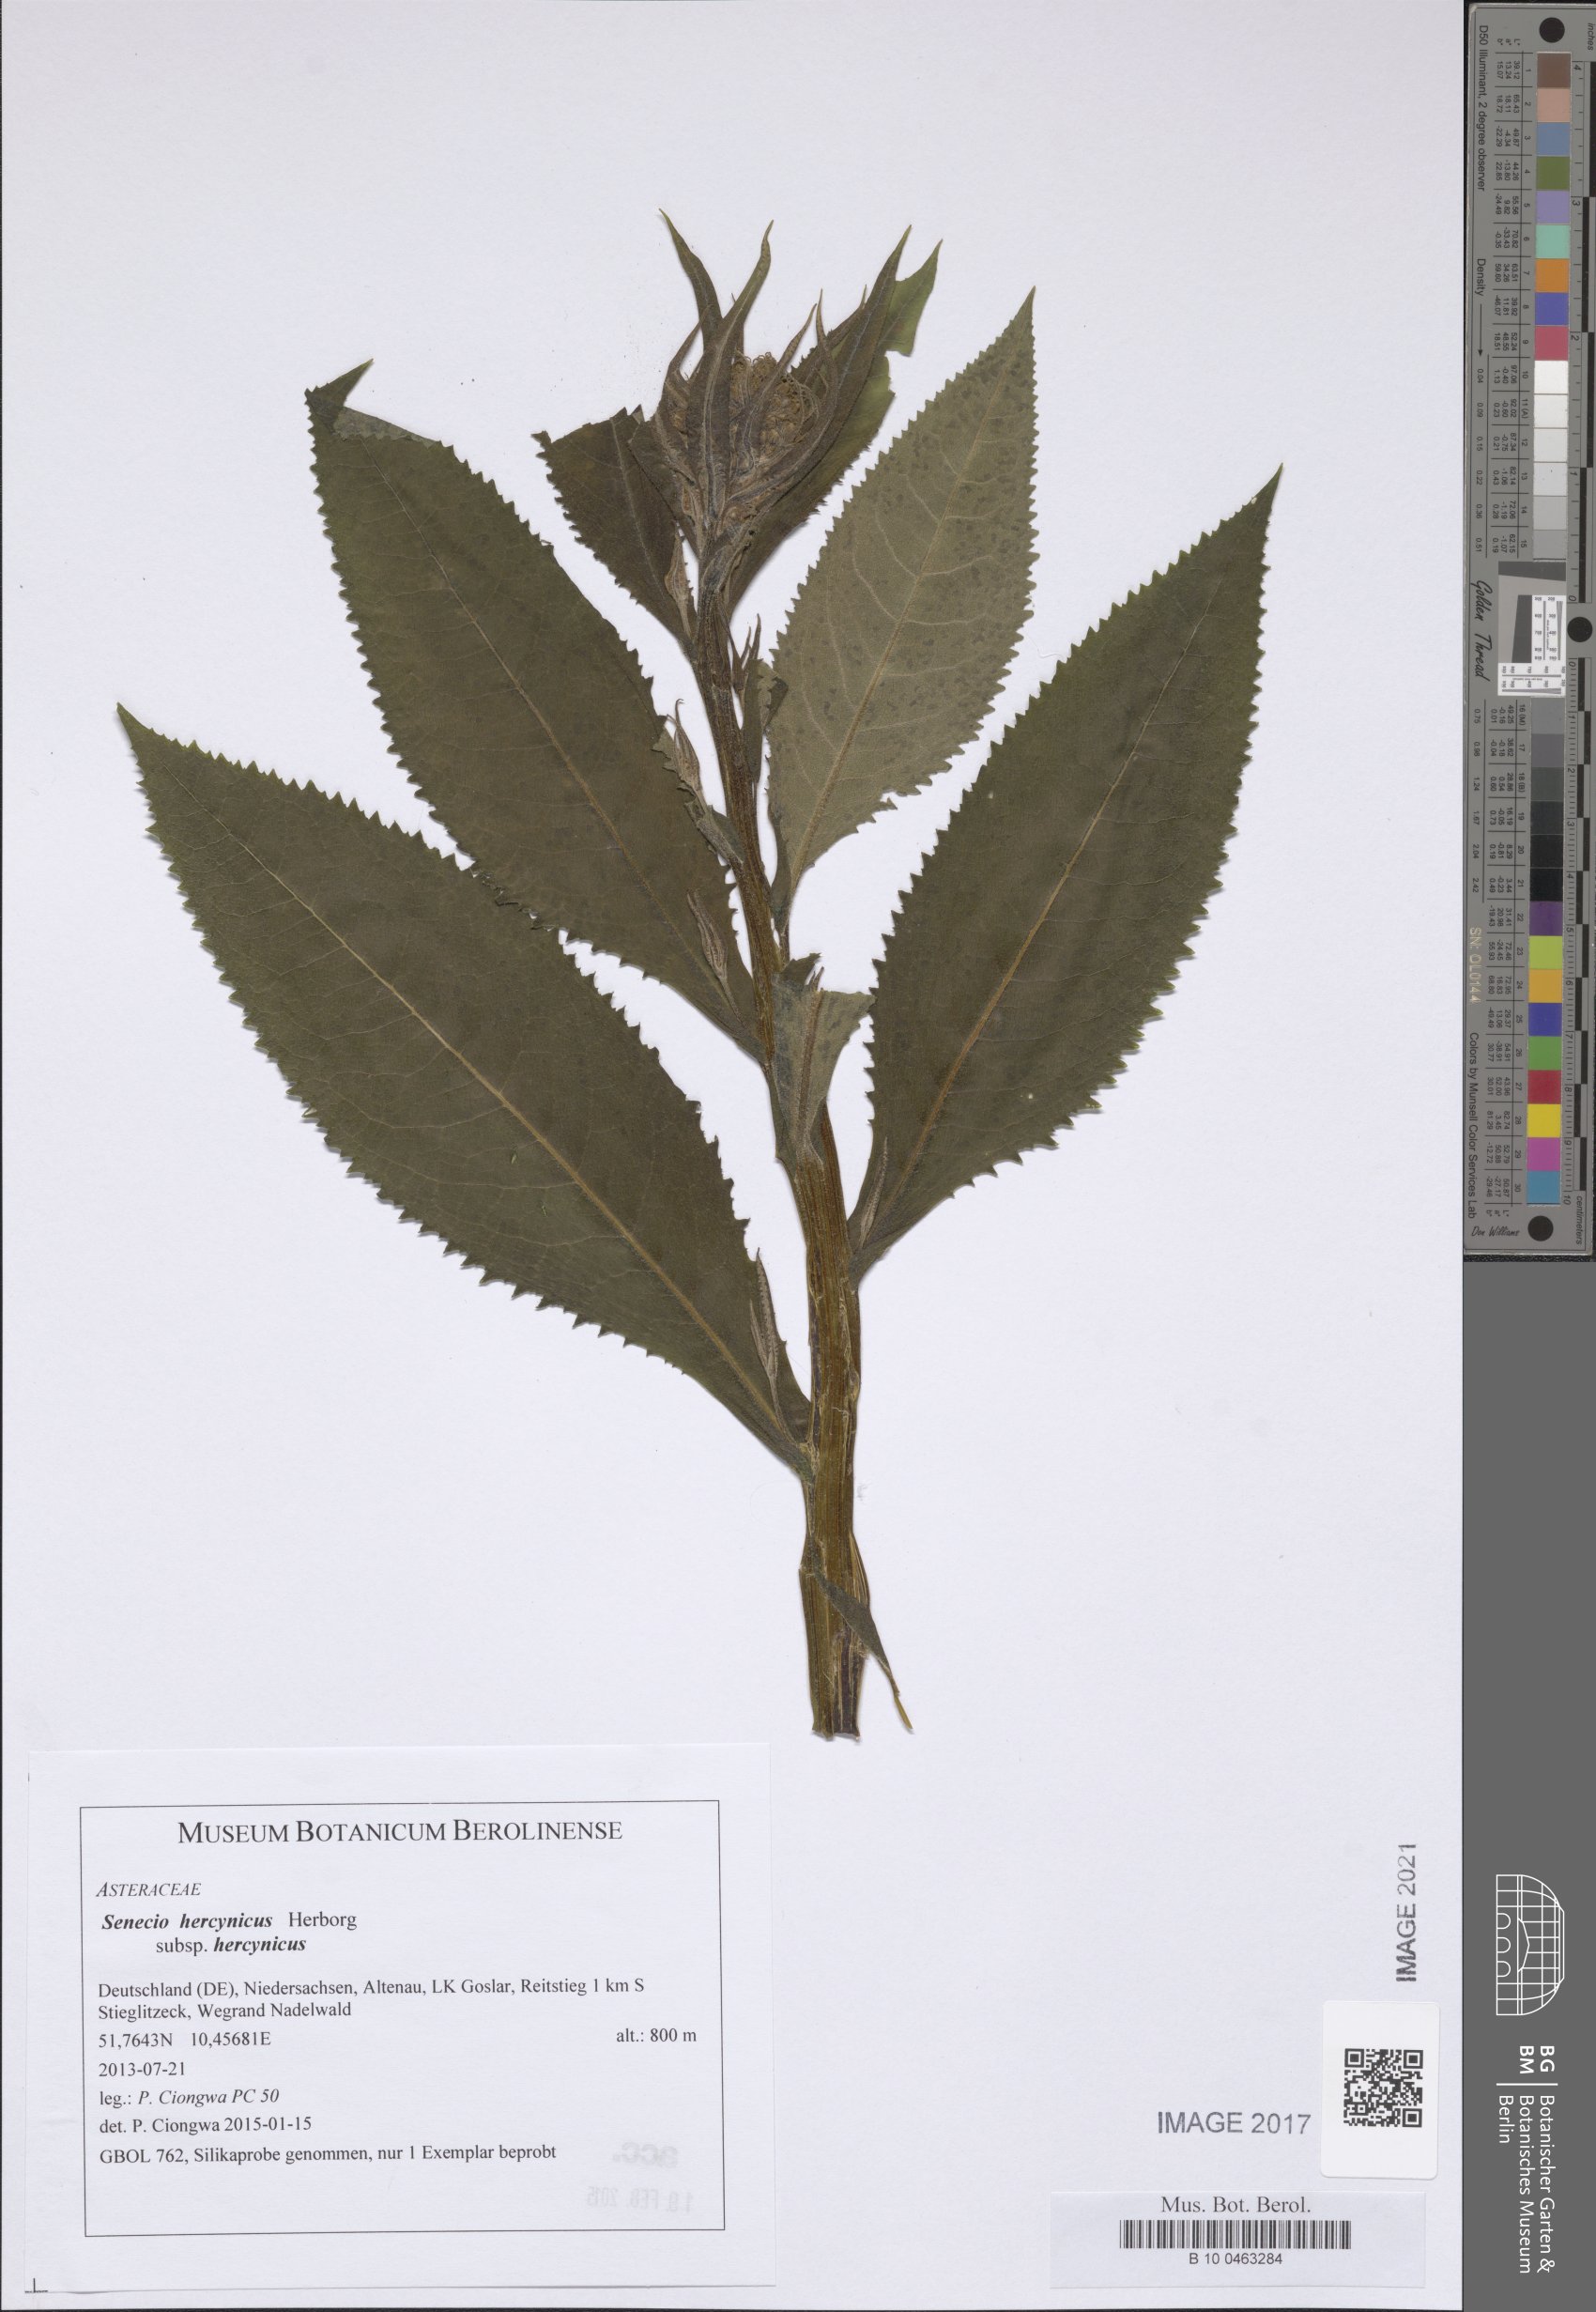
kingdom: Plantae
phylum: Tracheophyta
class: Magnoliopsida
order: Asterales
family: Asteraceae
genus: Senecio
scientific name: Senecio hercynicus
